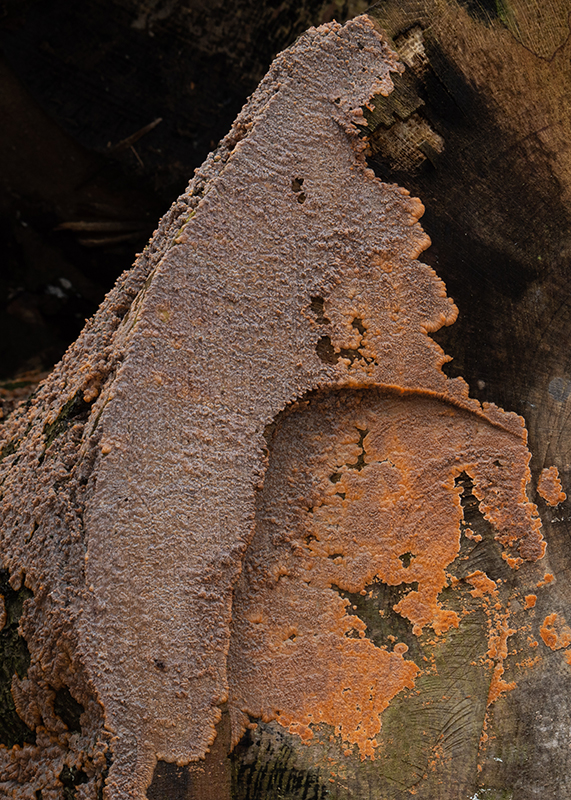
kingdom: Fungi
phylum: Basidiomycota
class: Agaricomycetes
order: Polyporales
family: Meruliaceae
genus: Phlebia
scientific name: Phlebia radiata
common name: stråle-åresvamp
